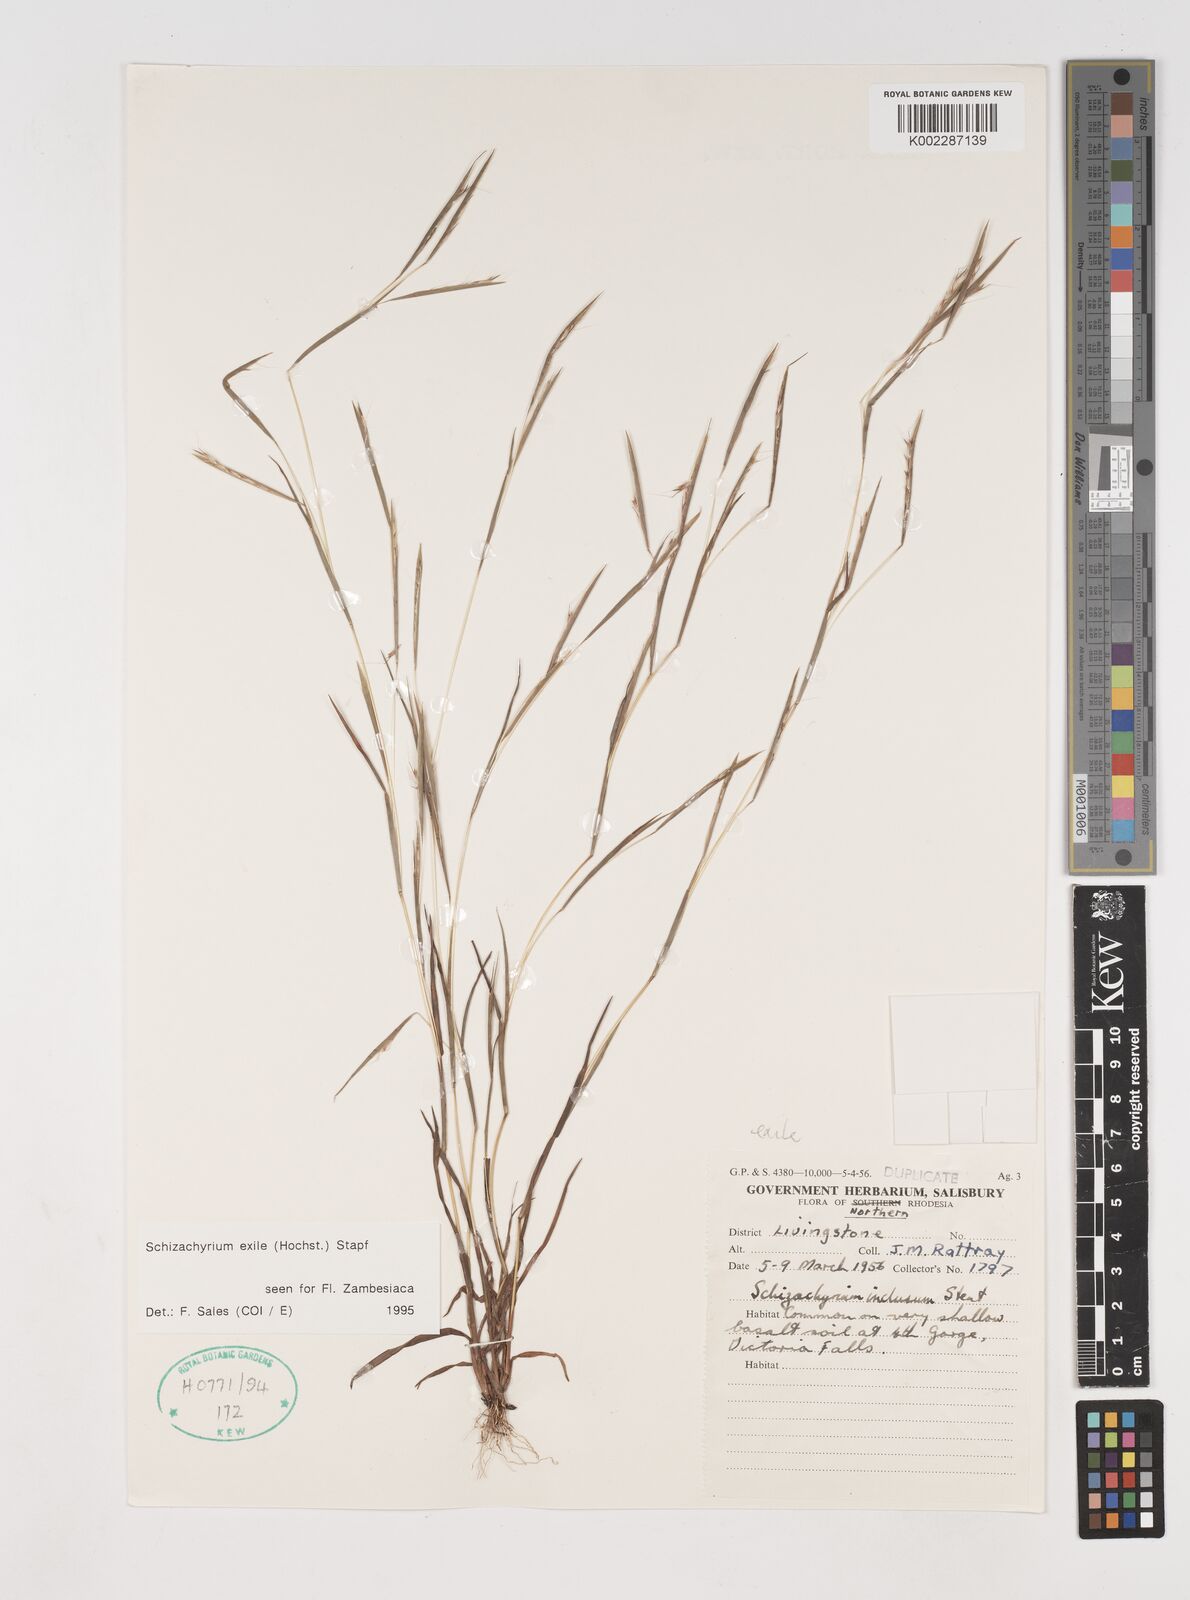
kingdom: Plantae
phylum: Tracheophyta
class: Liliopsida
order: Poales
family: Poaceae
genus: Schizachyrium
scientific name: Schizachyrium exile
